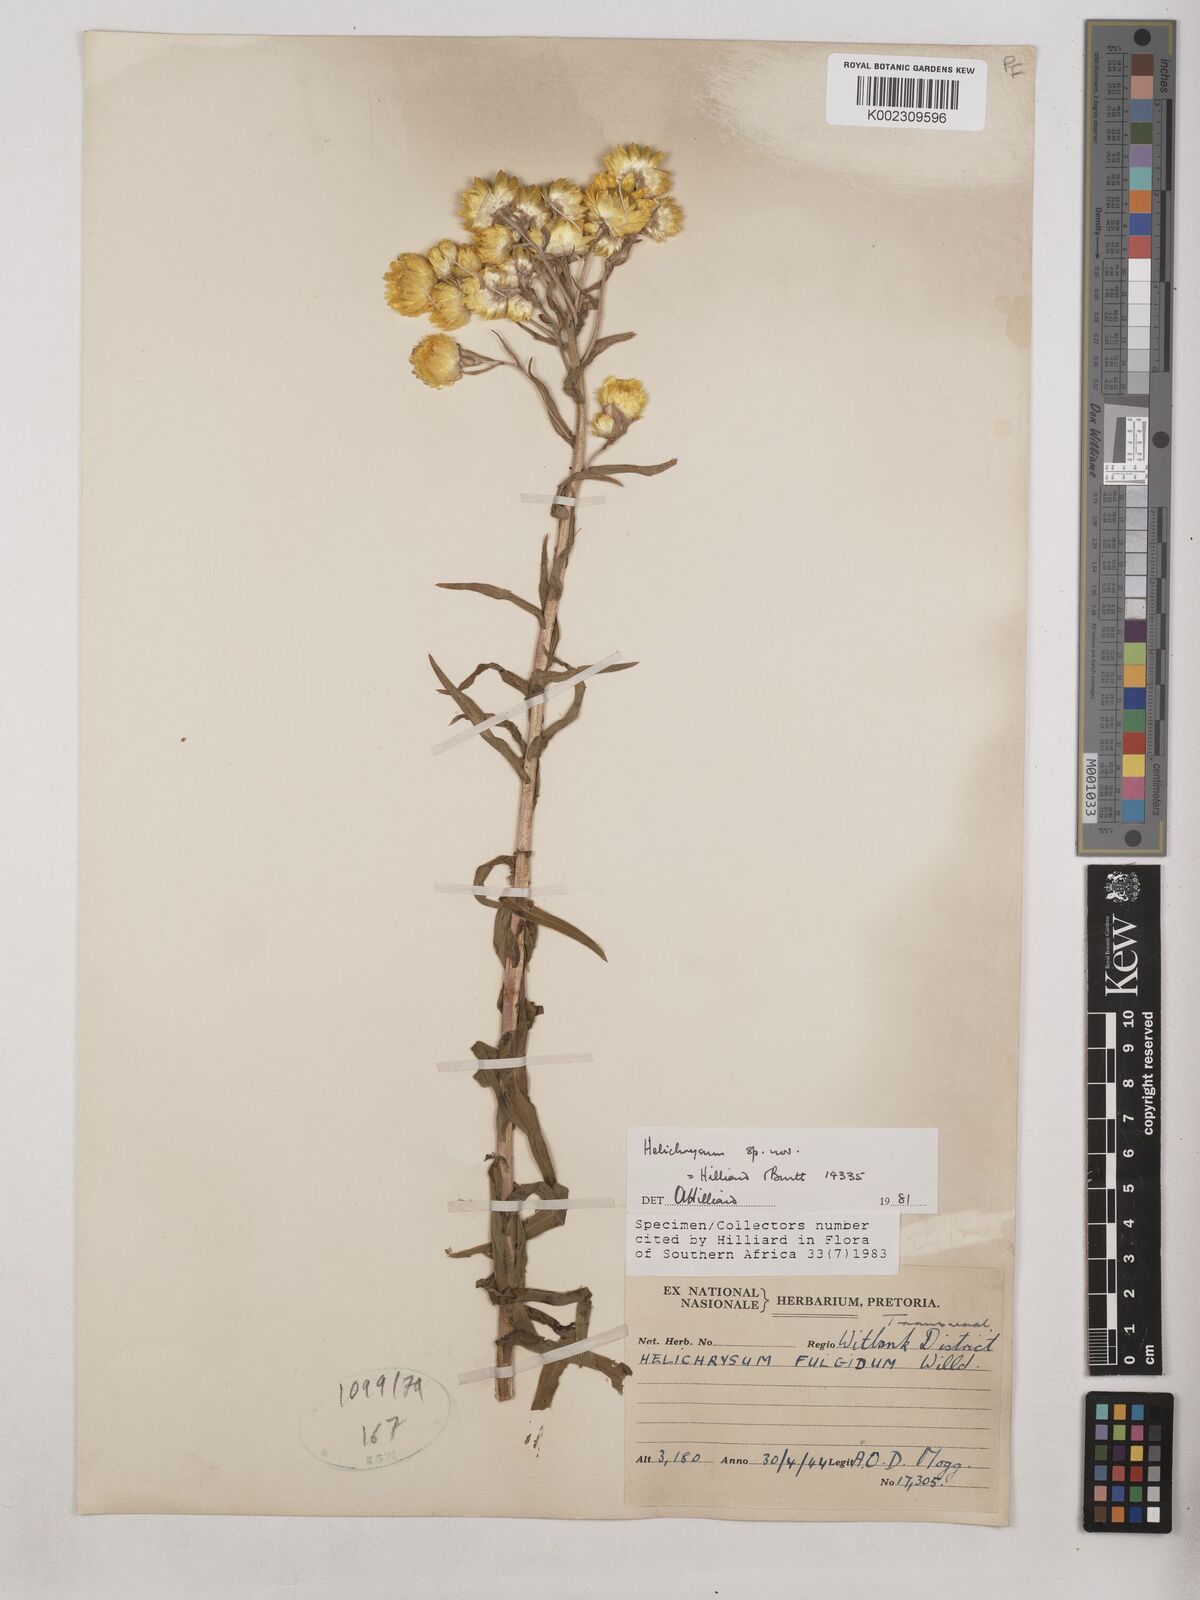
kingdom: Plantae
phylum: Tracheophyta
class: Magnoliopsida
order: Asterales
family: Asteraceae
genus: Helichrysum
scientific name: Helichrysum difficile
